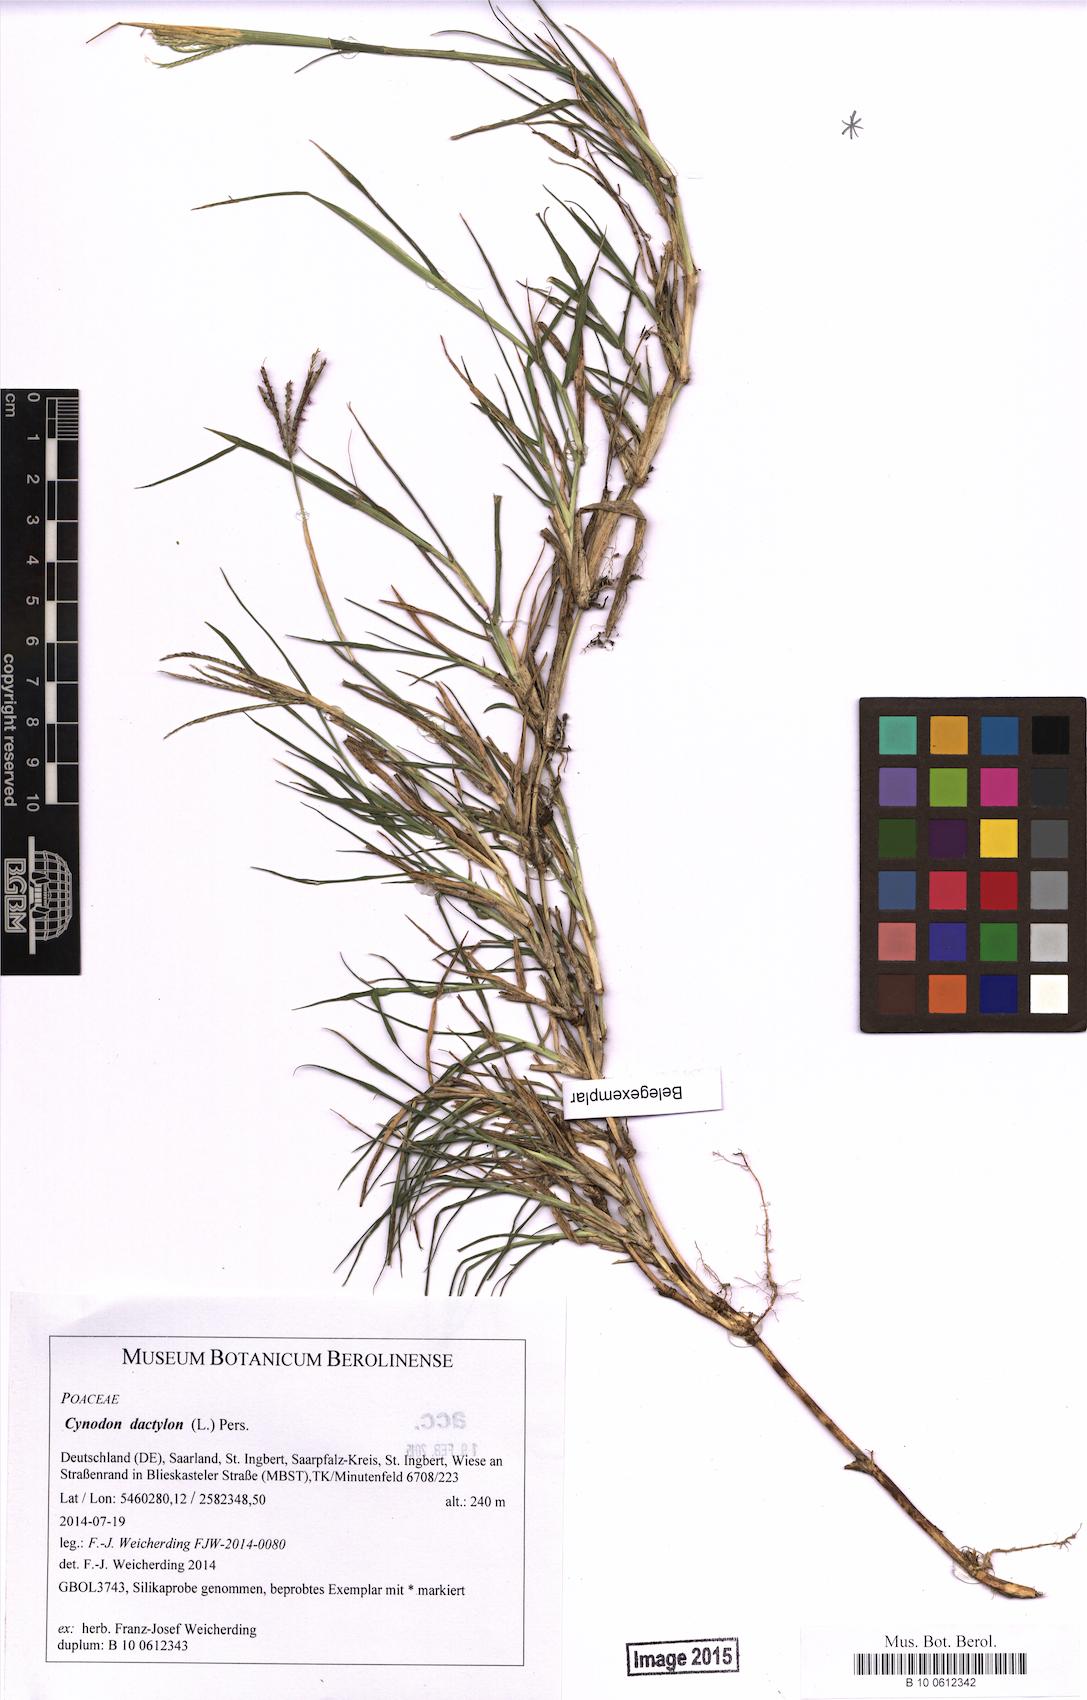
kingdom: Plantae
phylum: Tracheophyta
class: Liliopsida
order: Poales
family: Poaceae
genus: Cynodon
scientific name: Cynodon dactylon
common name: Bermuda grass
